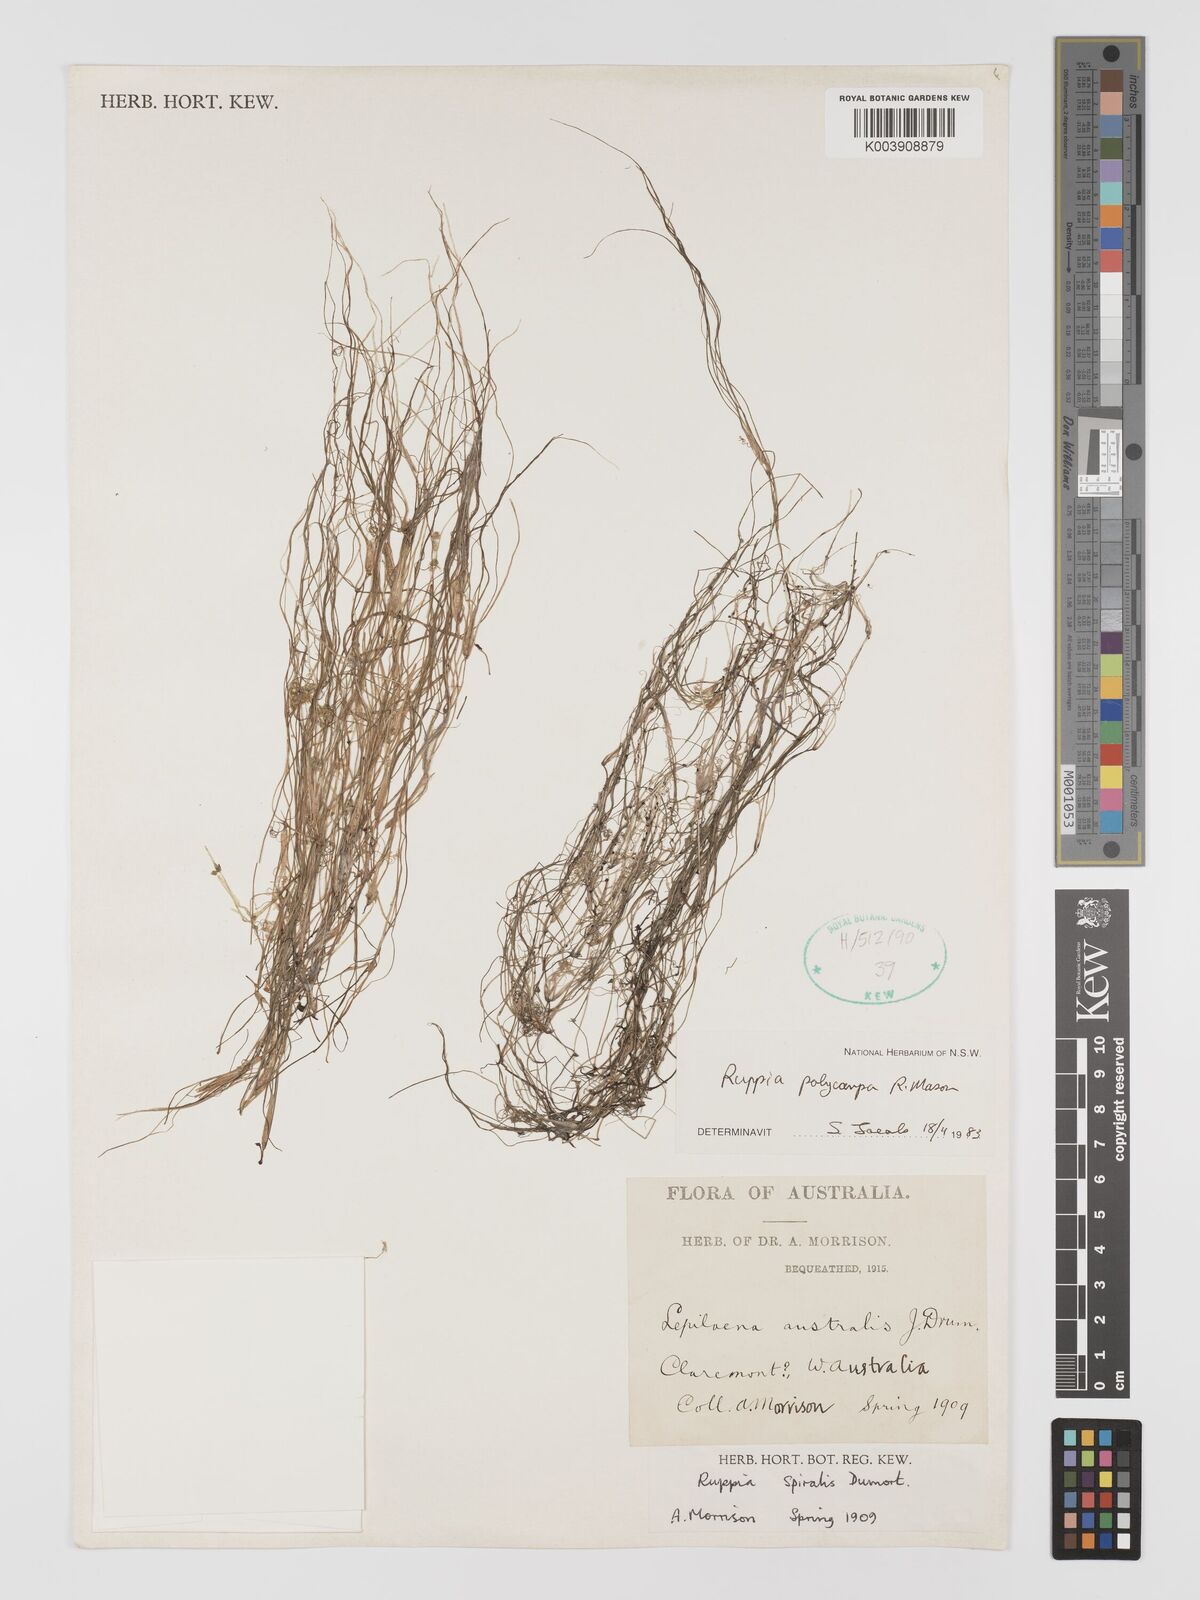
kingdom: Plantae
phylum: Tracheophyta
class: Liliopsida
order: Alismatales
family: Ruppiaceae
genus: Ruppia
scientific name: Ruppia polycarpa
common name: Species code: rp
